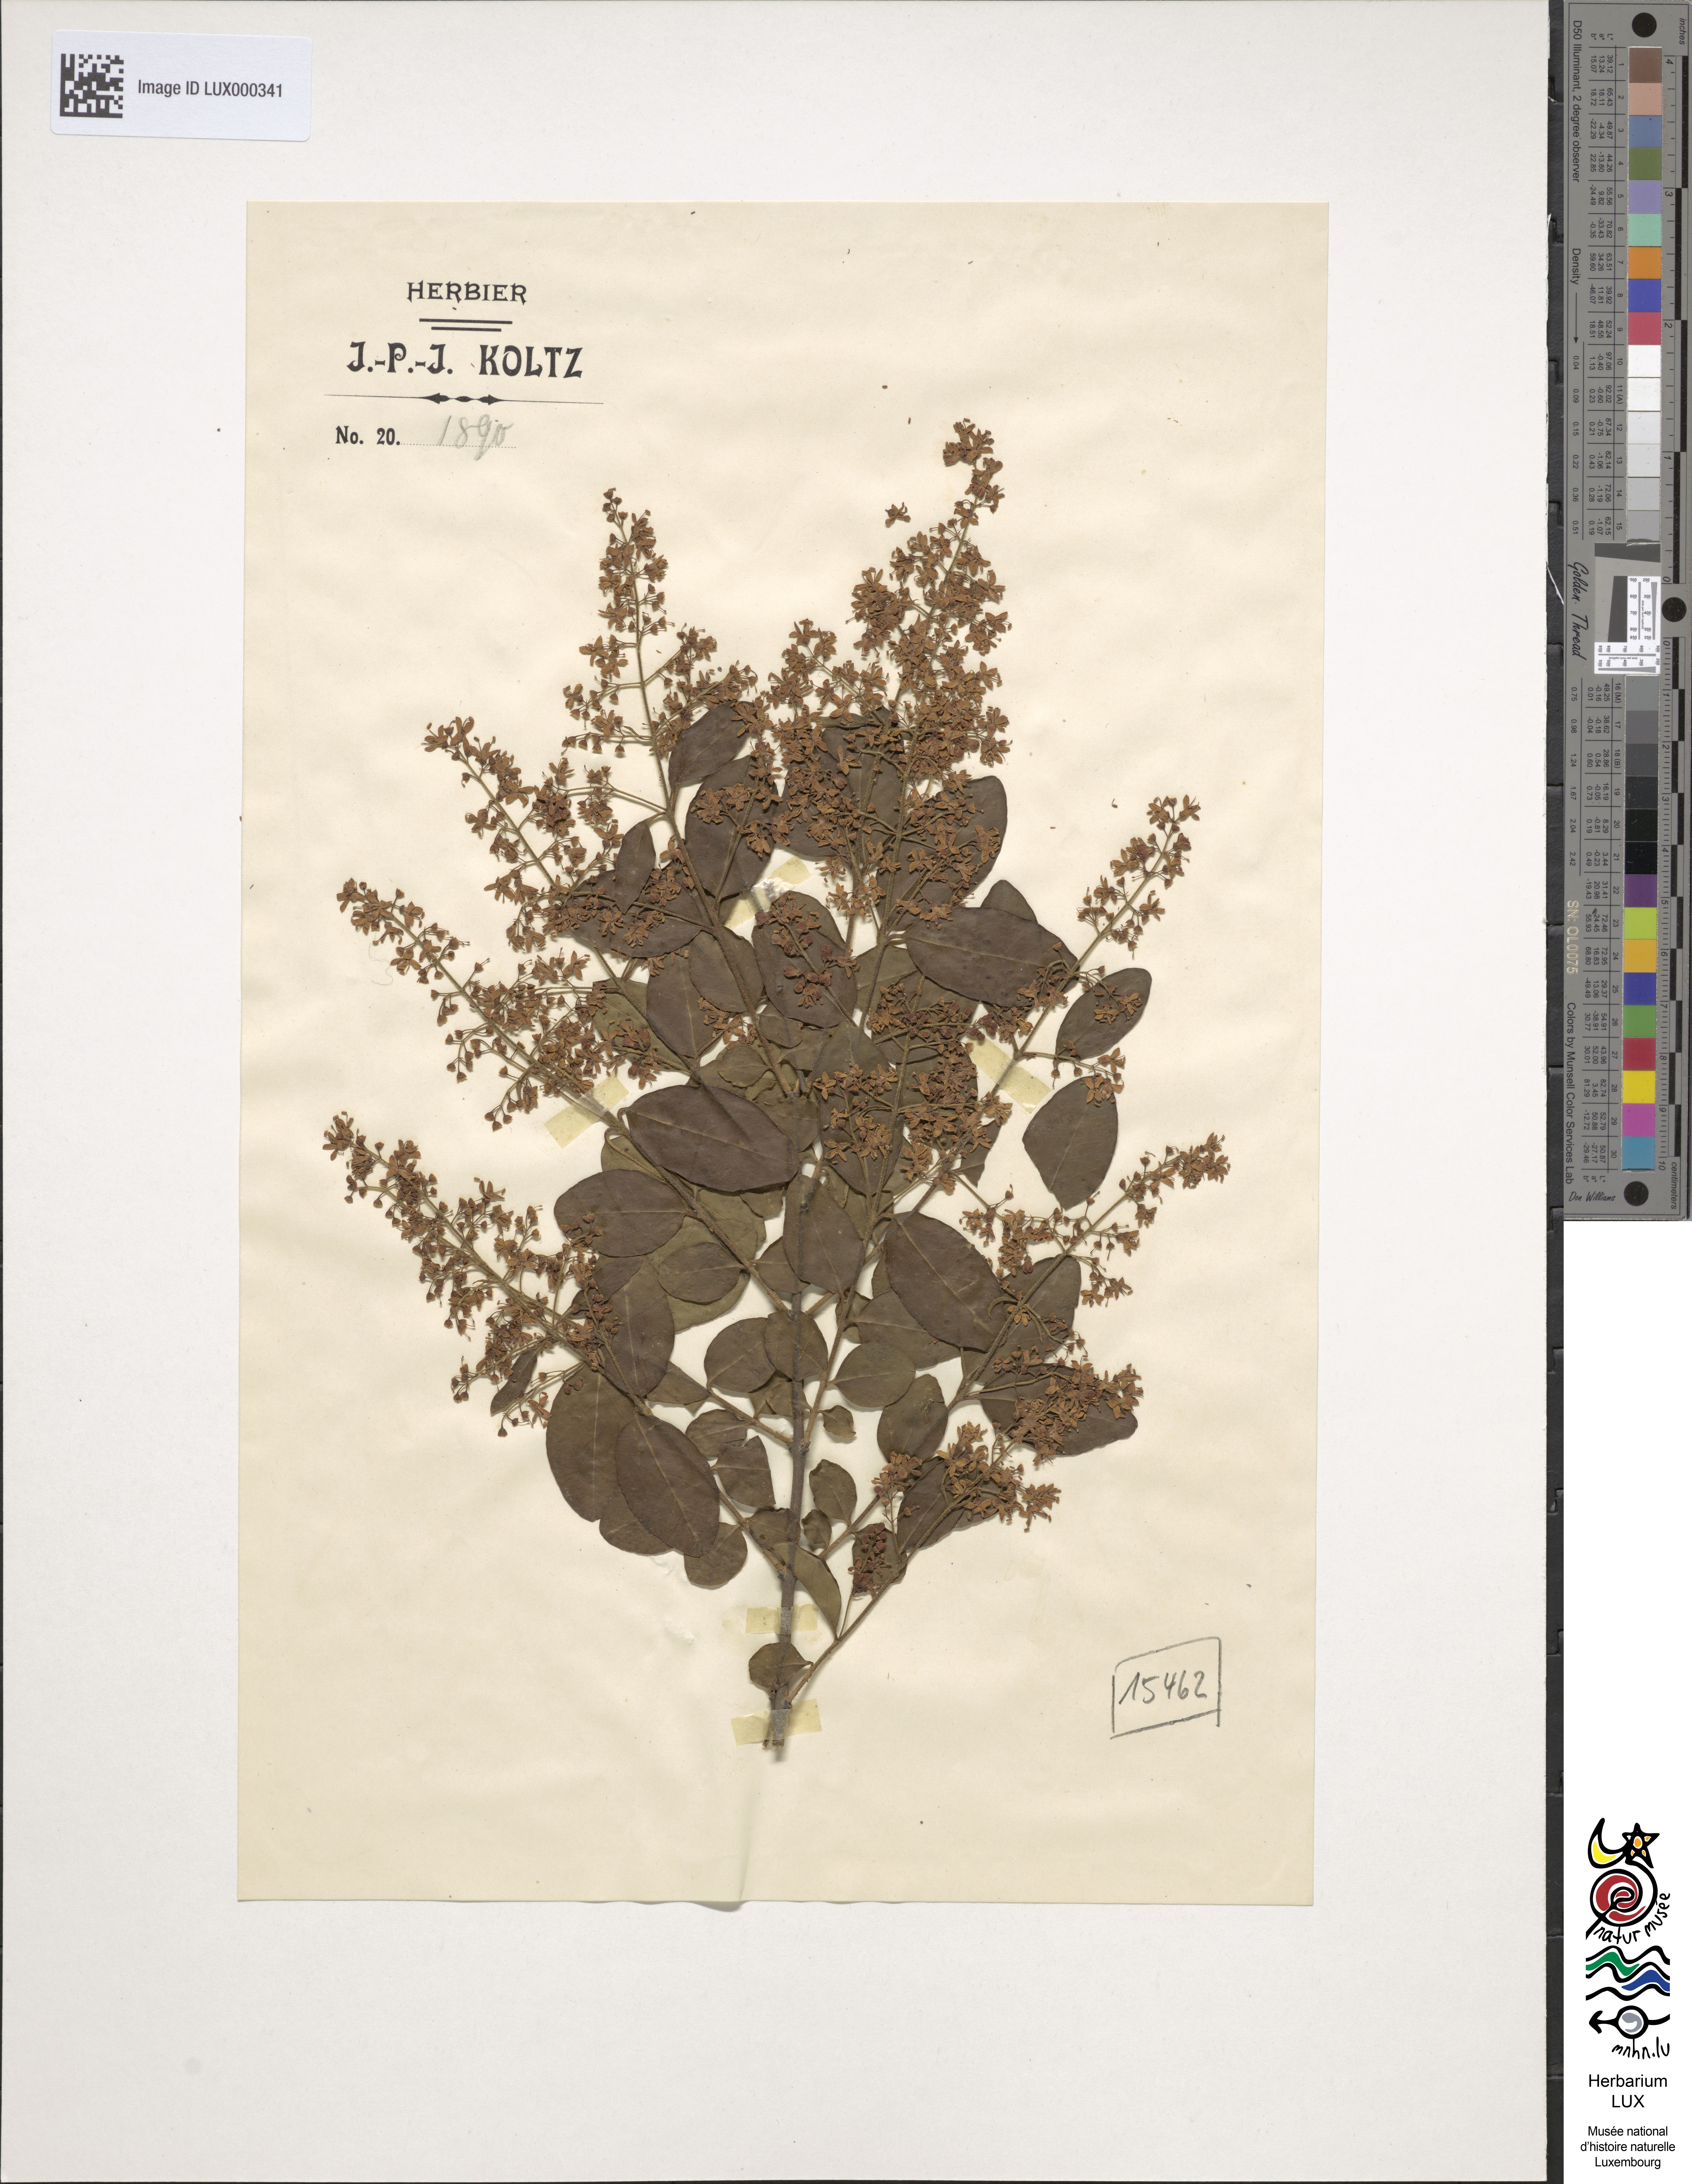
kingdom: Plantae
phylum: Tracheophyta
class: Magnoliopsida
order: Sapindales
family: Anacardiaceae
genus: Cotinus
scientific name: Cotinus coggygria
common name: Smoke-tree
